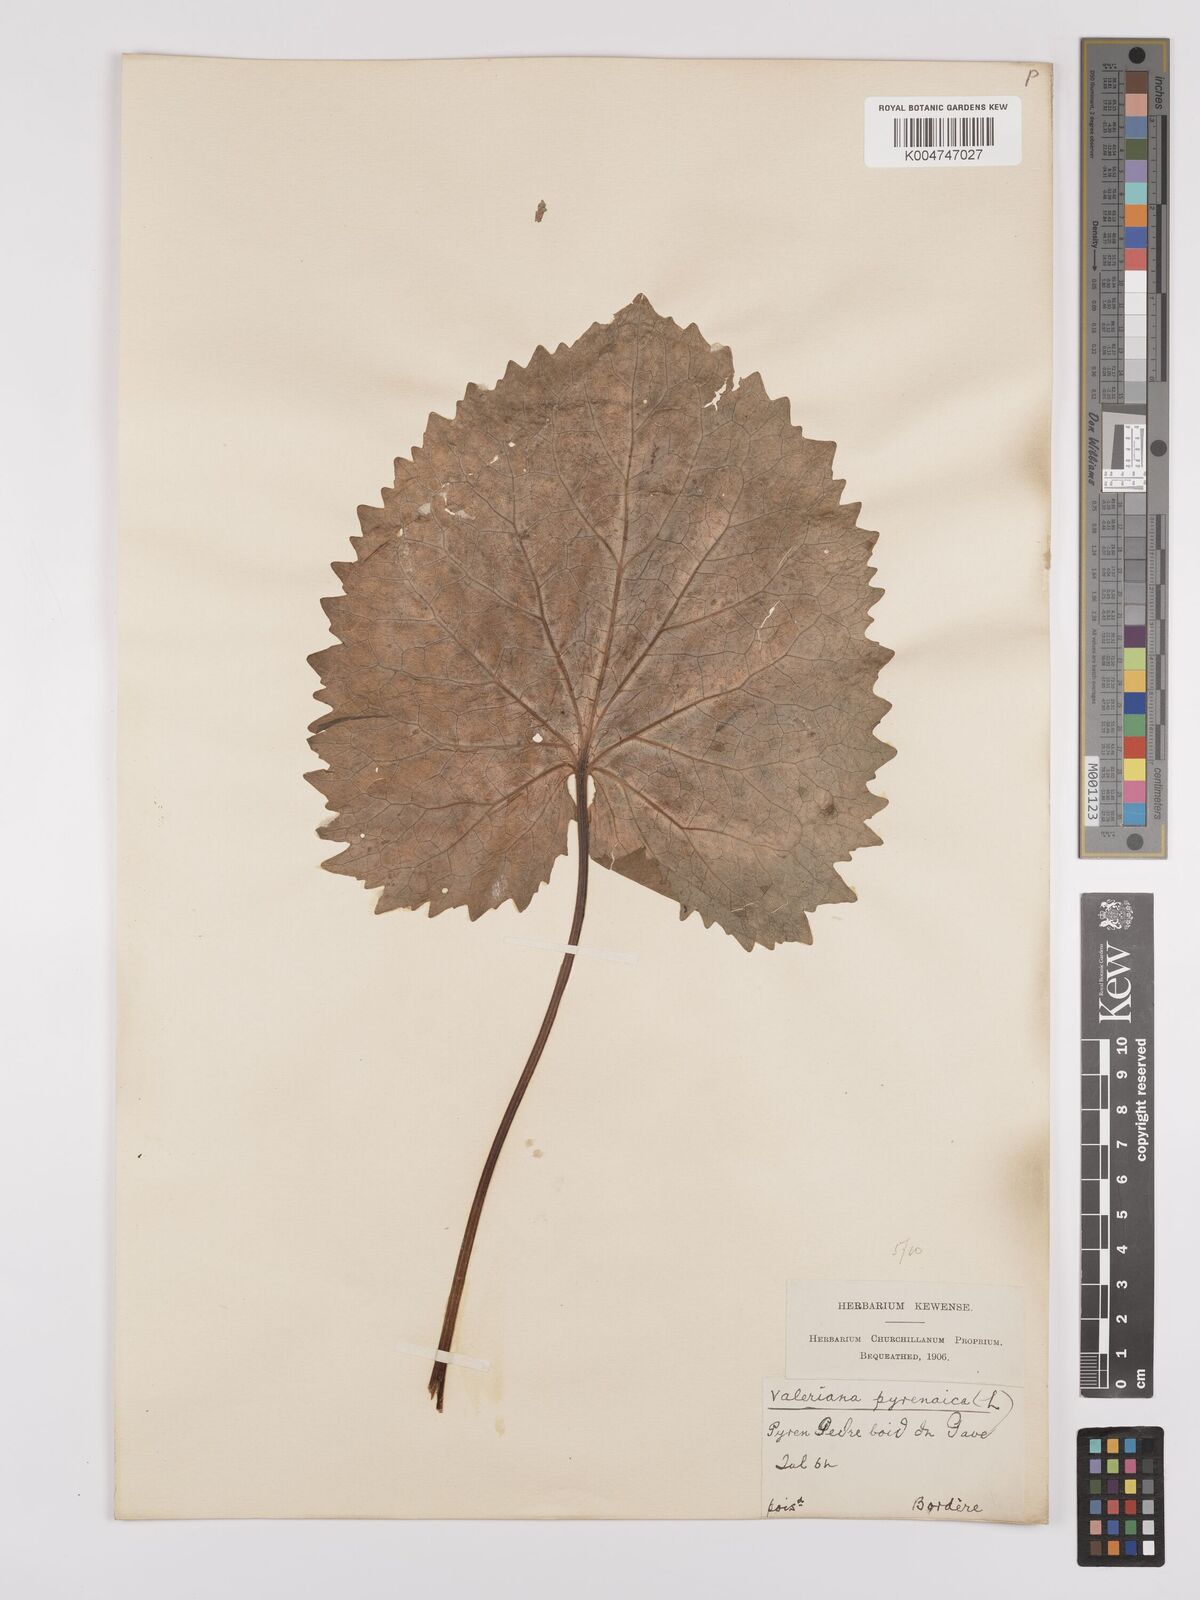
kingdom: Plantae
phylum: Tracheophyta
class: Magnoliopsida
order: Dipsacales
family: Caprifoliaceae
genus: Valeriana
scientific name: Valeriana pyrenaica
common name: Pyrenean valerian
